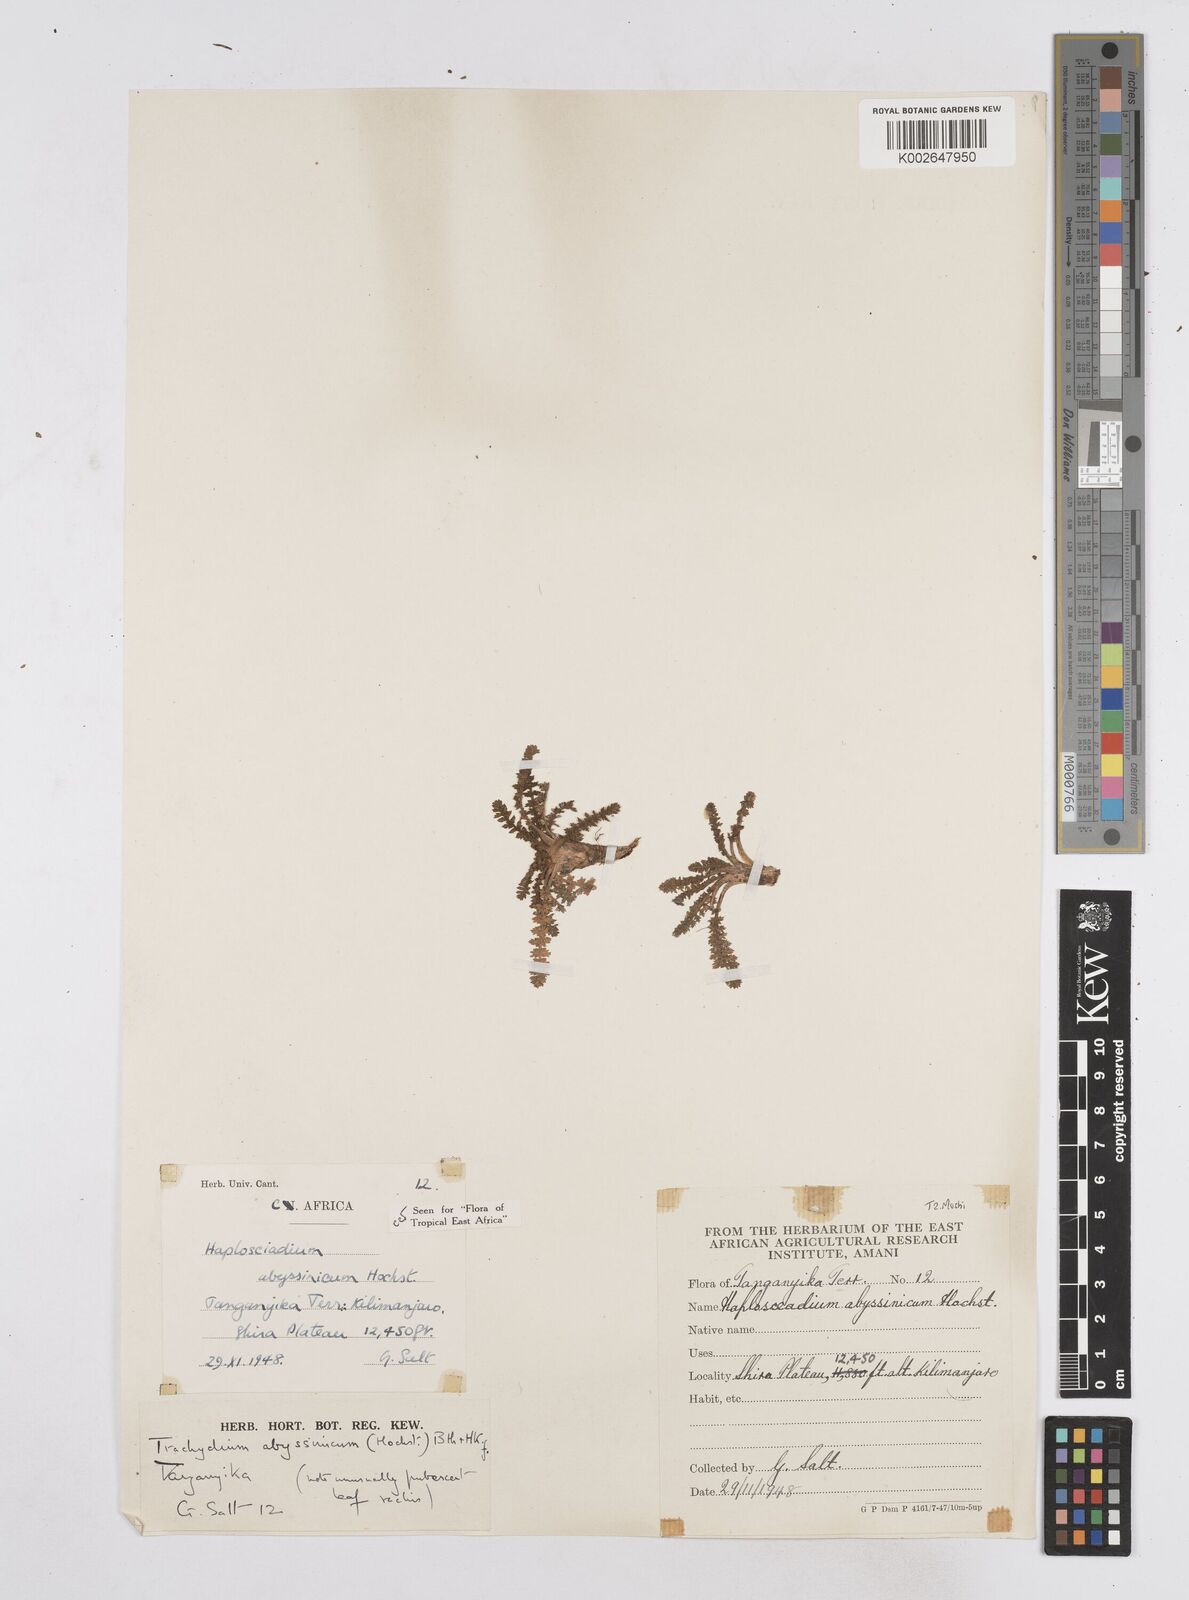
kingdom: Plantae
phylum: Tracheophyta
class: Magnoliopsida
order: Apiales
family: Apiaceae
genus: Haplosciadium
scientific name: Haplosciadium abyssinicum
